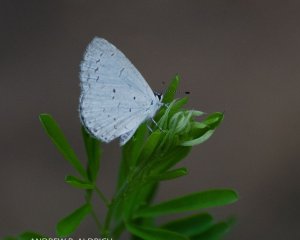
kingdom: Animalia
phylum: Arthropoda
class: Insecta
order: Lepidoptera
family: Lycaenidae
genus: Cyaniris
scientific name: Cyaniris neglecta
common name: Summer Azure
